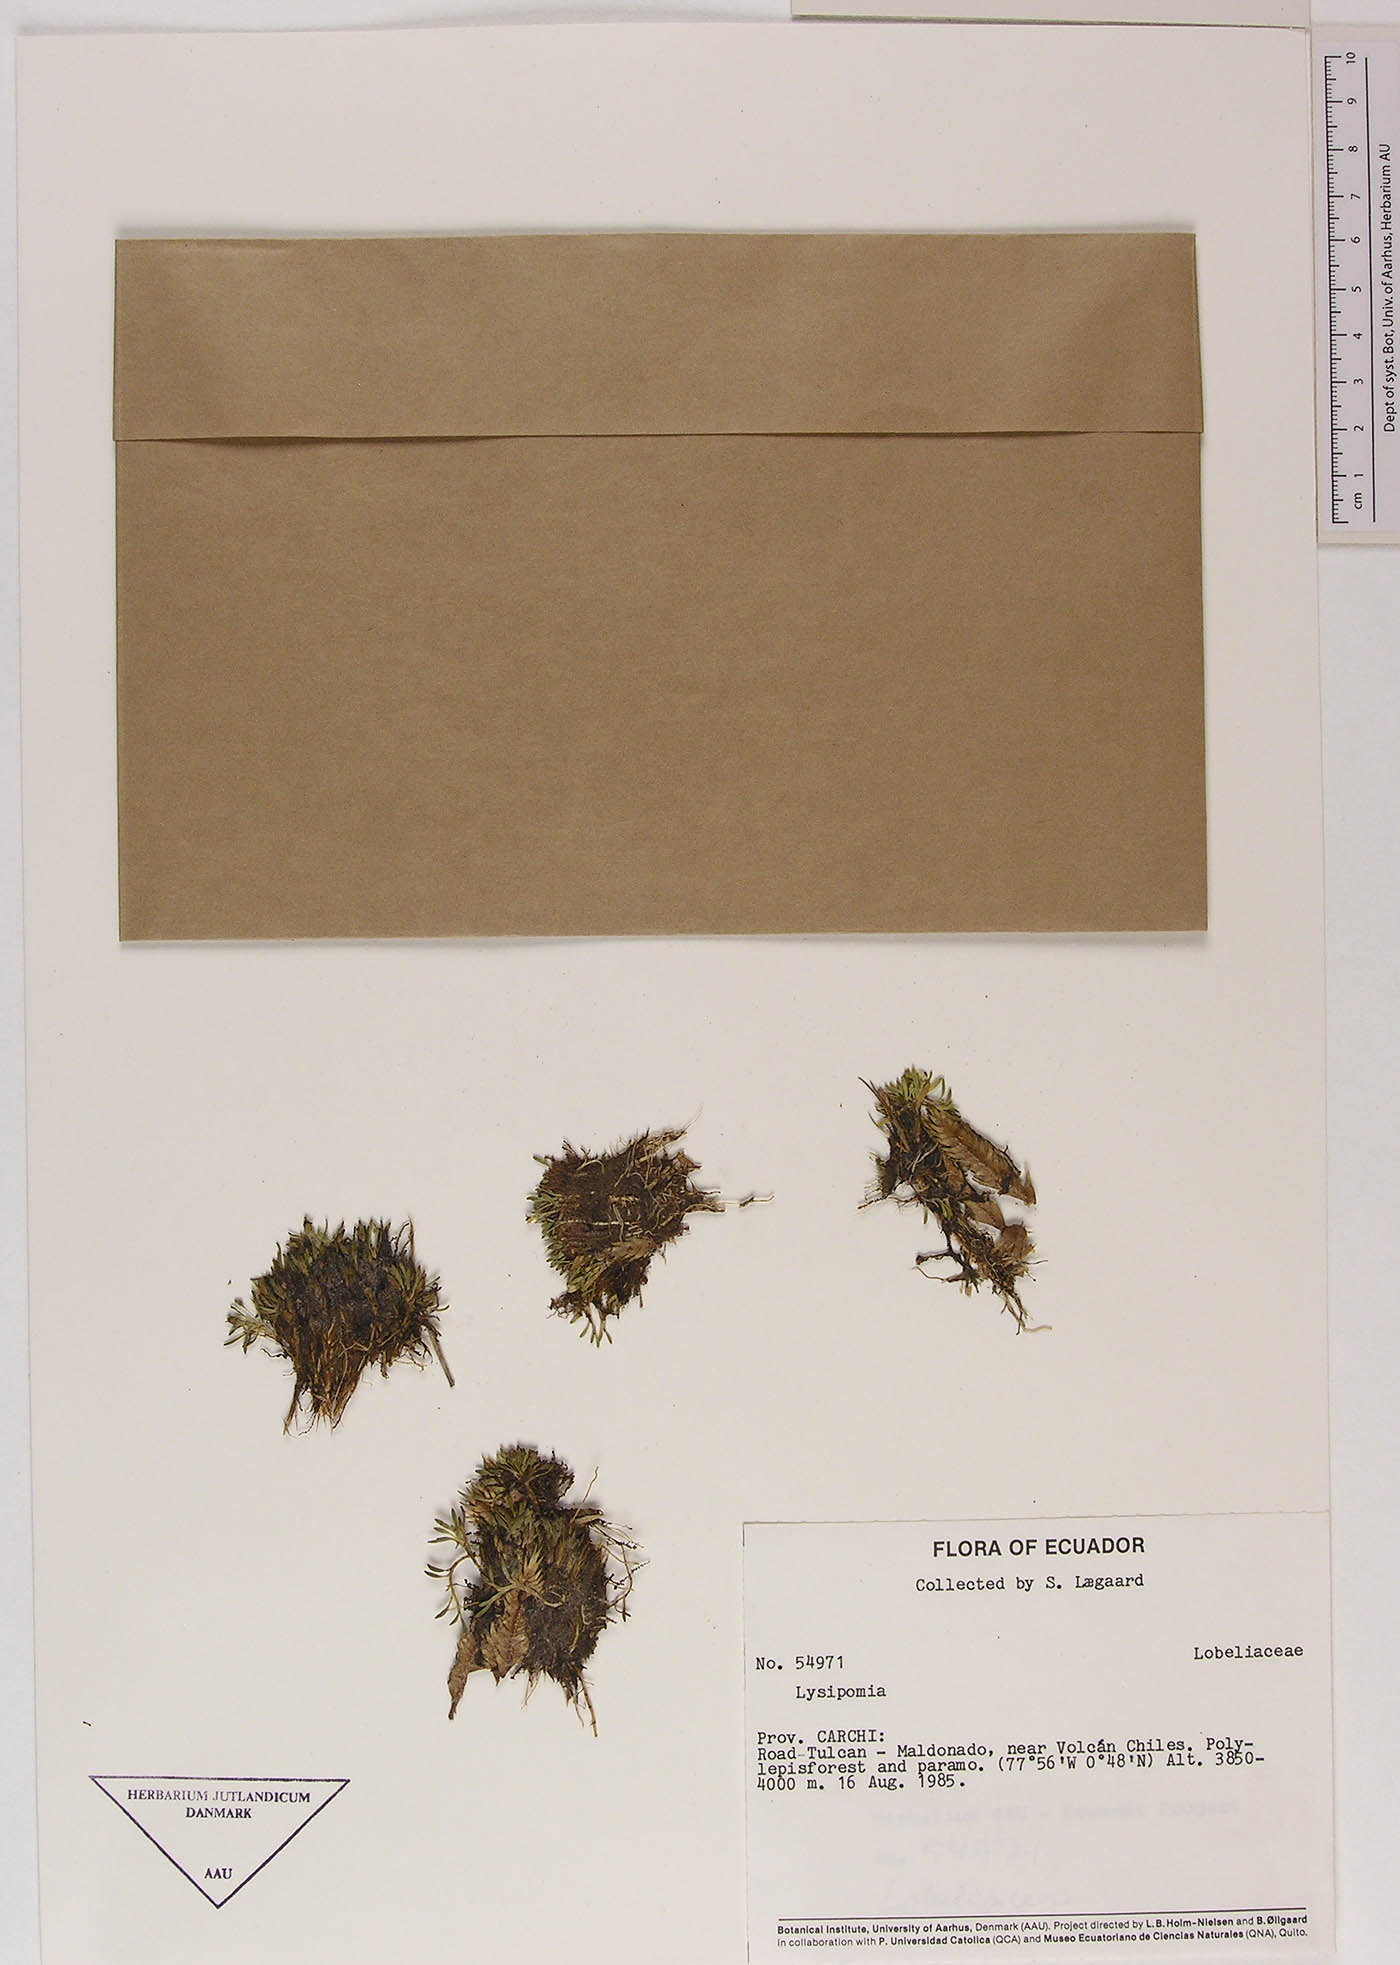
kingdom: Plantae
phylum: Tracheophyta
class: Magnoliopsida
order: Asterales
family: Campanulaceae
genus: Lysipomia
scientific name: Lysipomia
